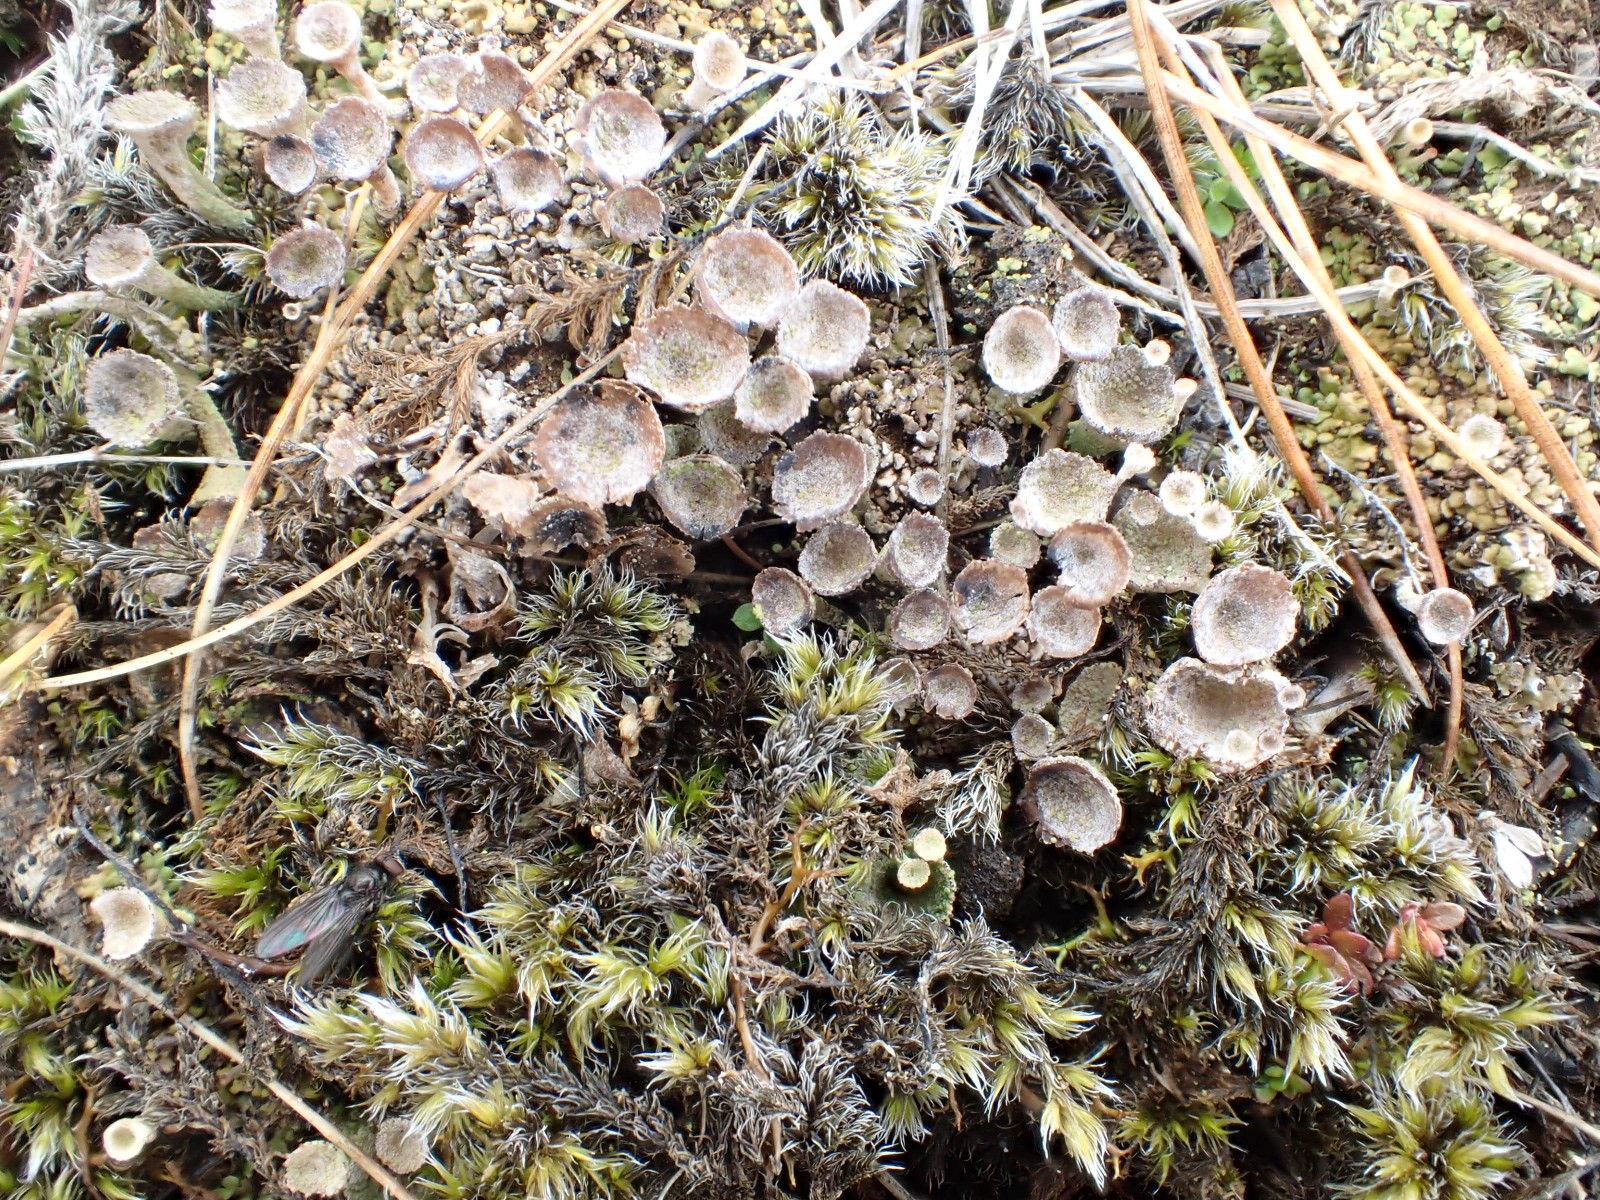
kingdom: Fungi
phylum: Ascomycota
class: Lecanoromycetes
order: Lecanorales
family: Cladoniaceae
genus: Cladonia
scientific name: Cladonia
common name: brungrøn bægerlav
